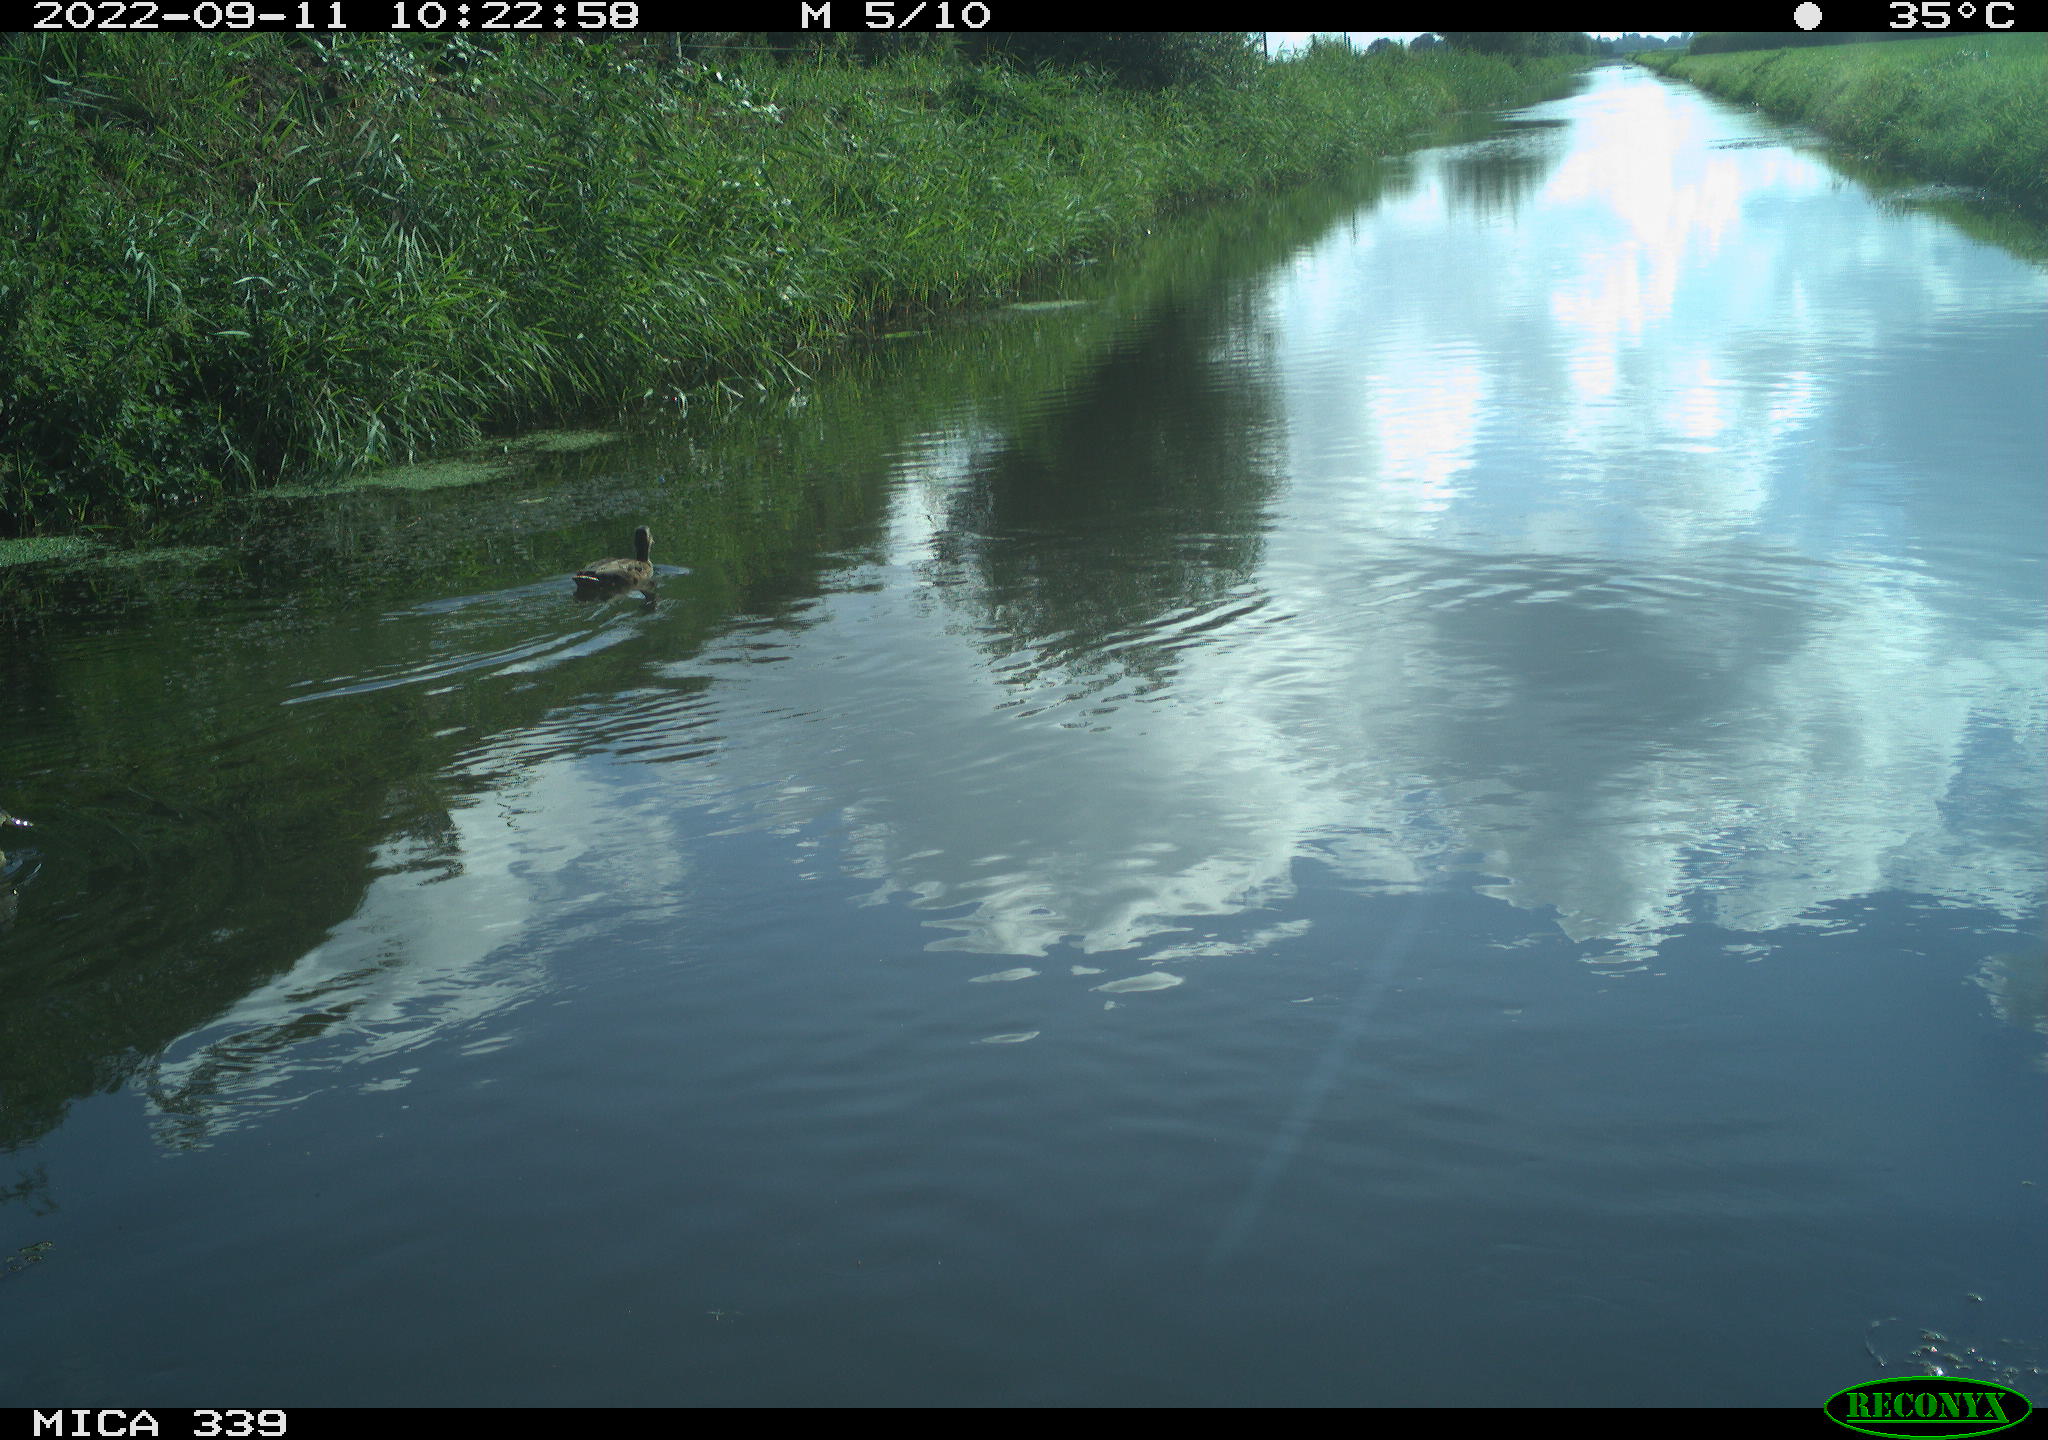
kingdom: Animalia
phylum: Chordata
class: Aves
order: Anseriformes
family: Anatidae
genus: Anas
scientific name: Anas
